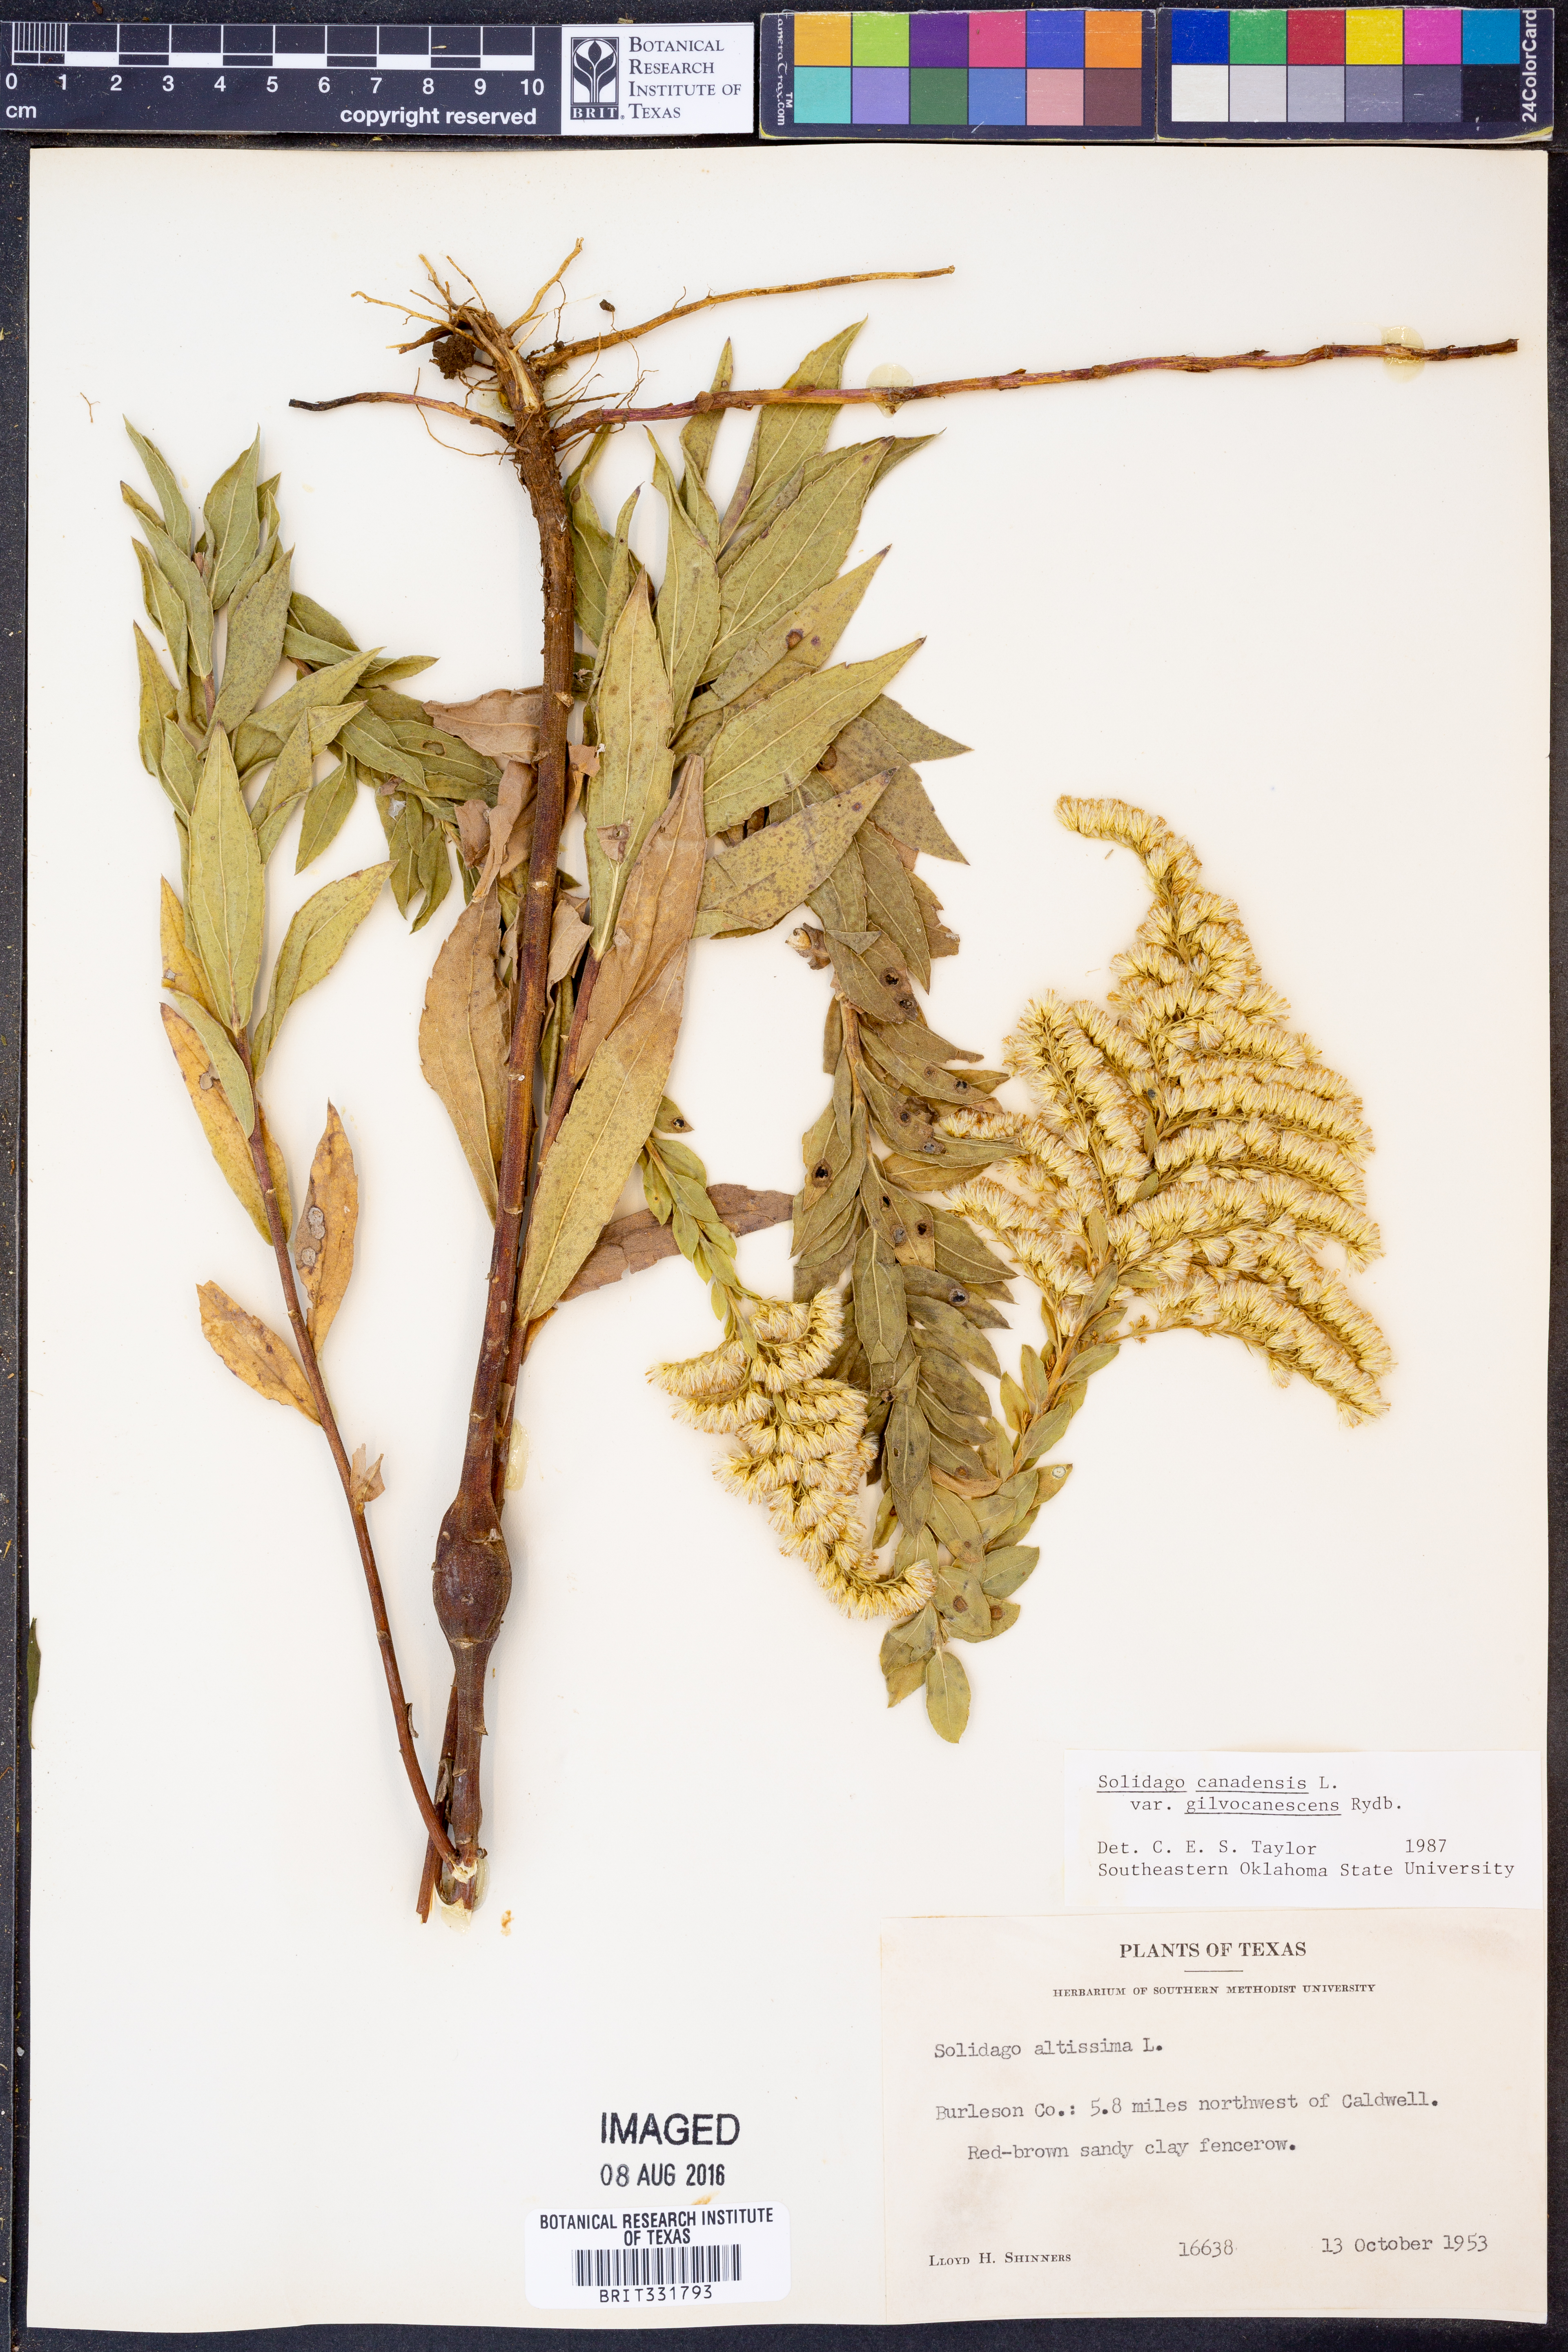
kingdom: Plantae
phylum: Tracheophyta
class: Magnoliopsida
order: Asterales
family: Asteraceae
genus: Solidago
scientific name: Solidago altissima
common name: Late goldenrod
